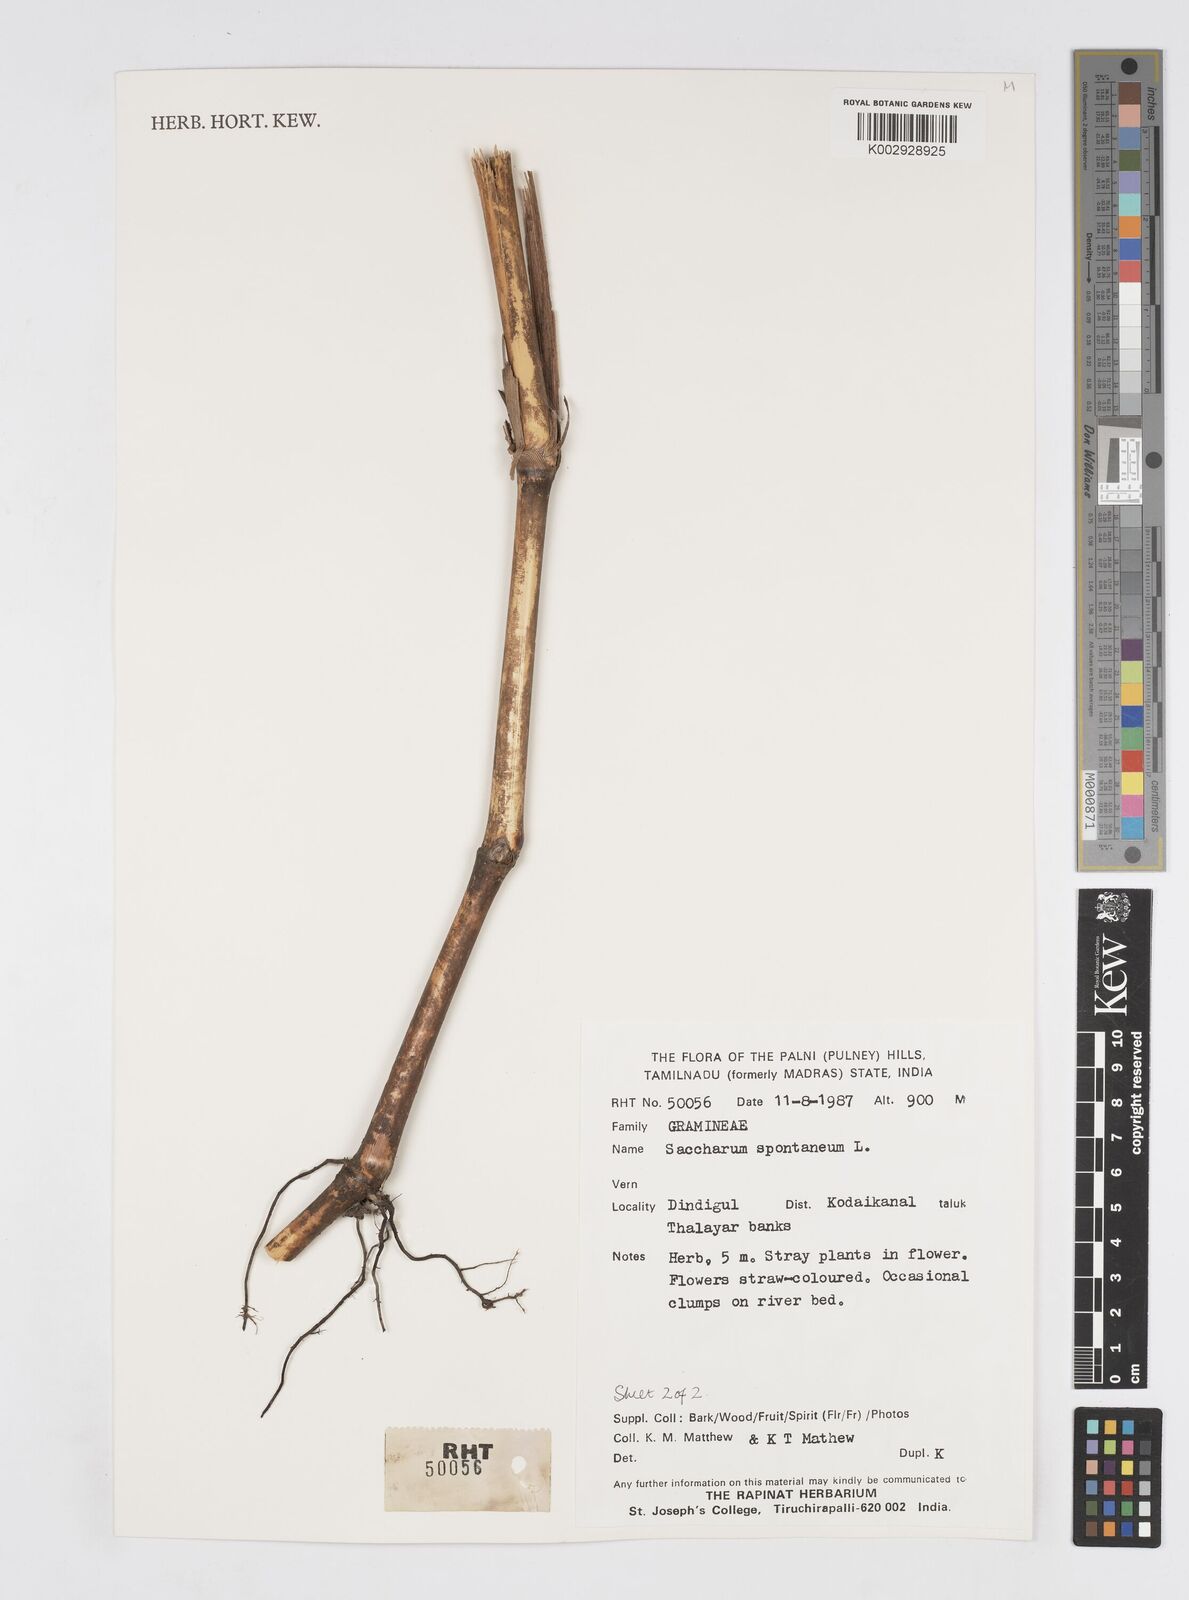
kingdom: Plantae
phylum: Tracheophyta
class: Liliopsida
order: Poales
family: Poaceae
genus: Saccharum
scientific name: Saccharum spontaneum
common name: Wild sugarcane
